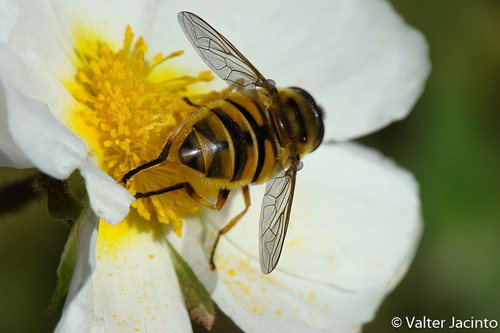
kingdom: Animalia
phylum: Arthropoda
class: Insecta
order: Diptera
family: Syrphidae
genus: Myathropa
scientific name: Myathropa florea
